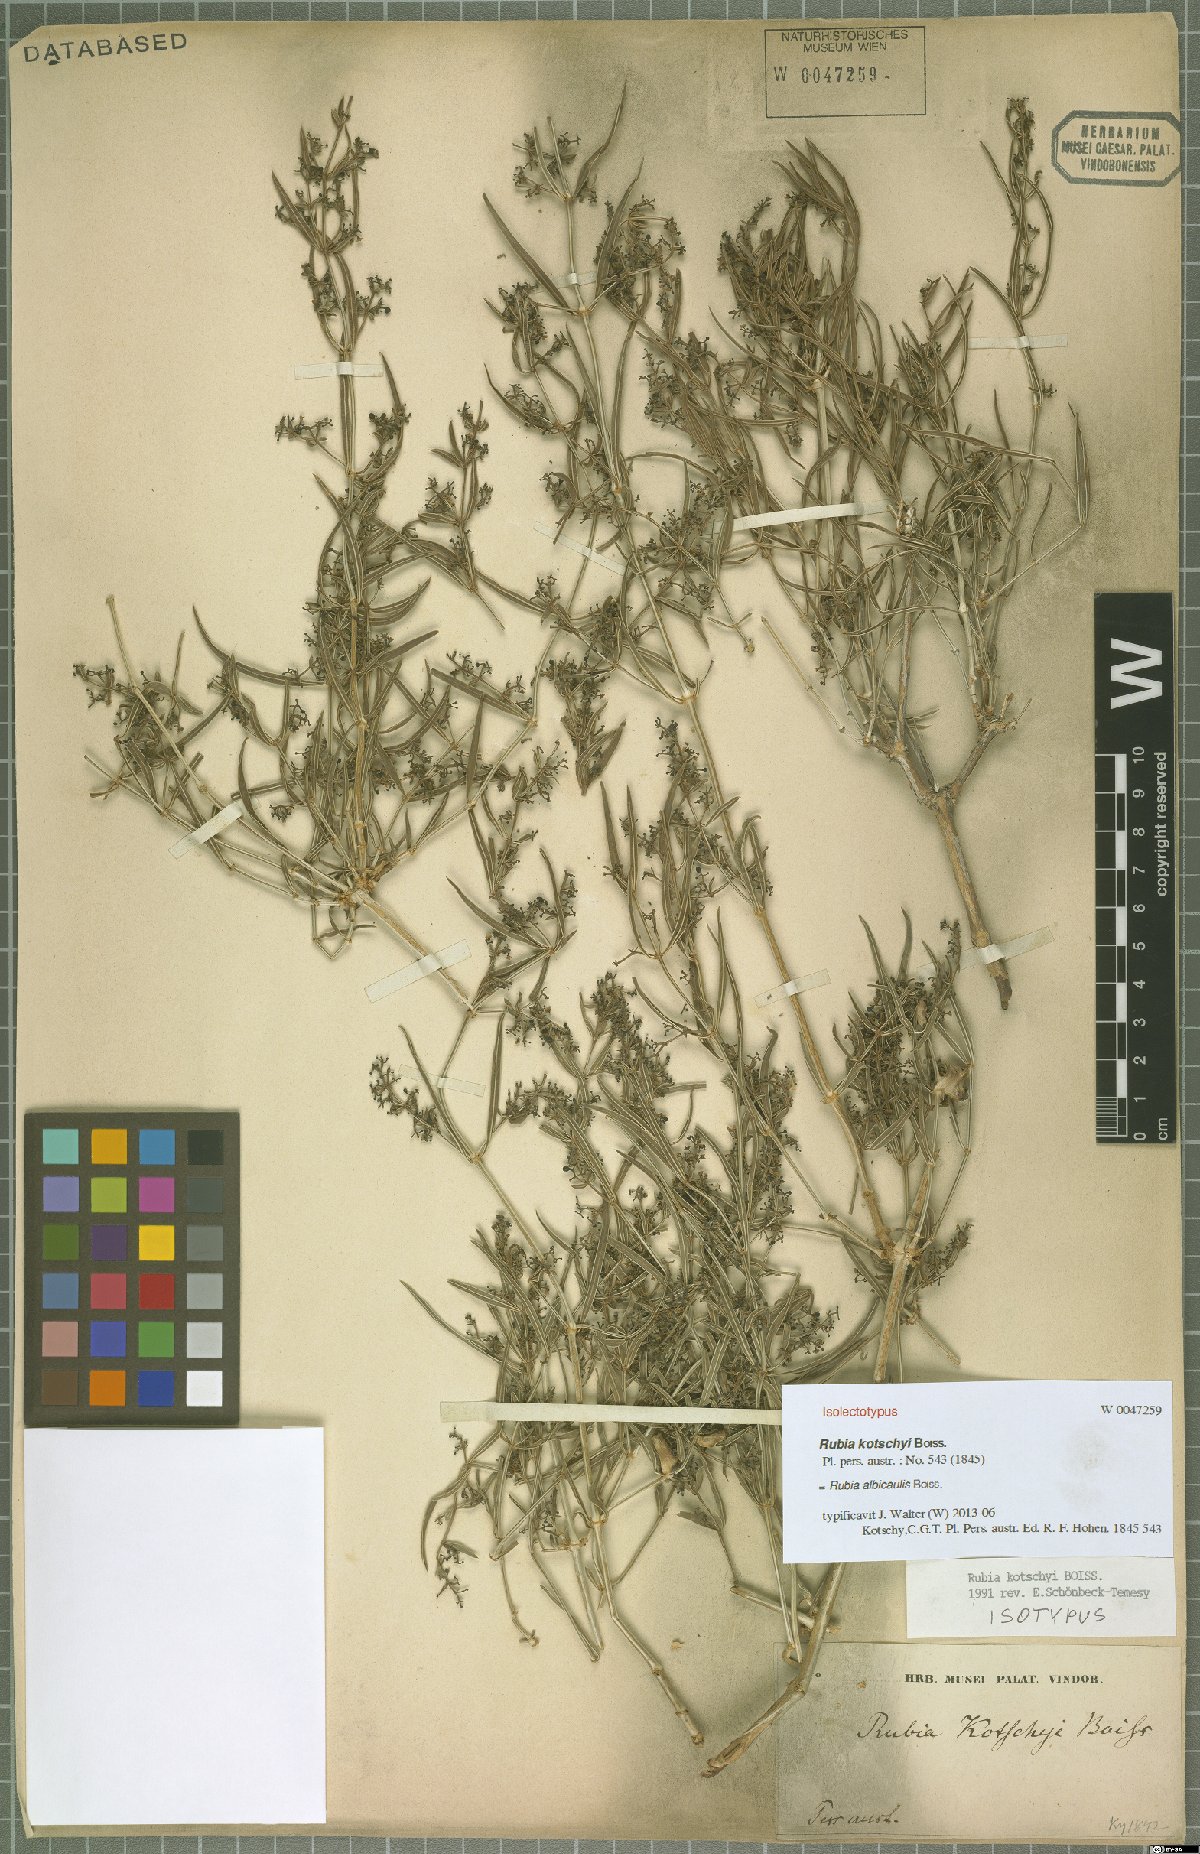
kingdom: Plantae
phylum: Tracheophyta
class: Magnoliopsida
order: Gentianales
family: Rubiaceae
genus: Rubia
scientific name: Rubia albicaulis
